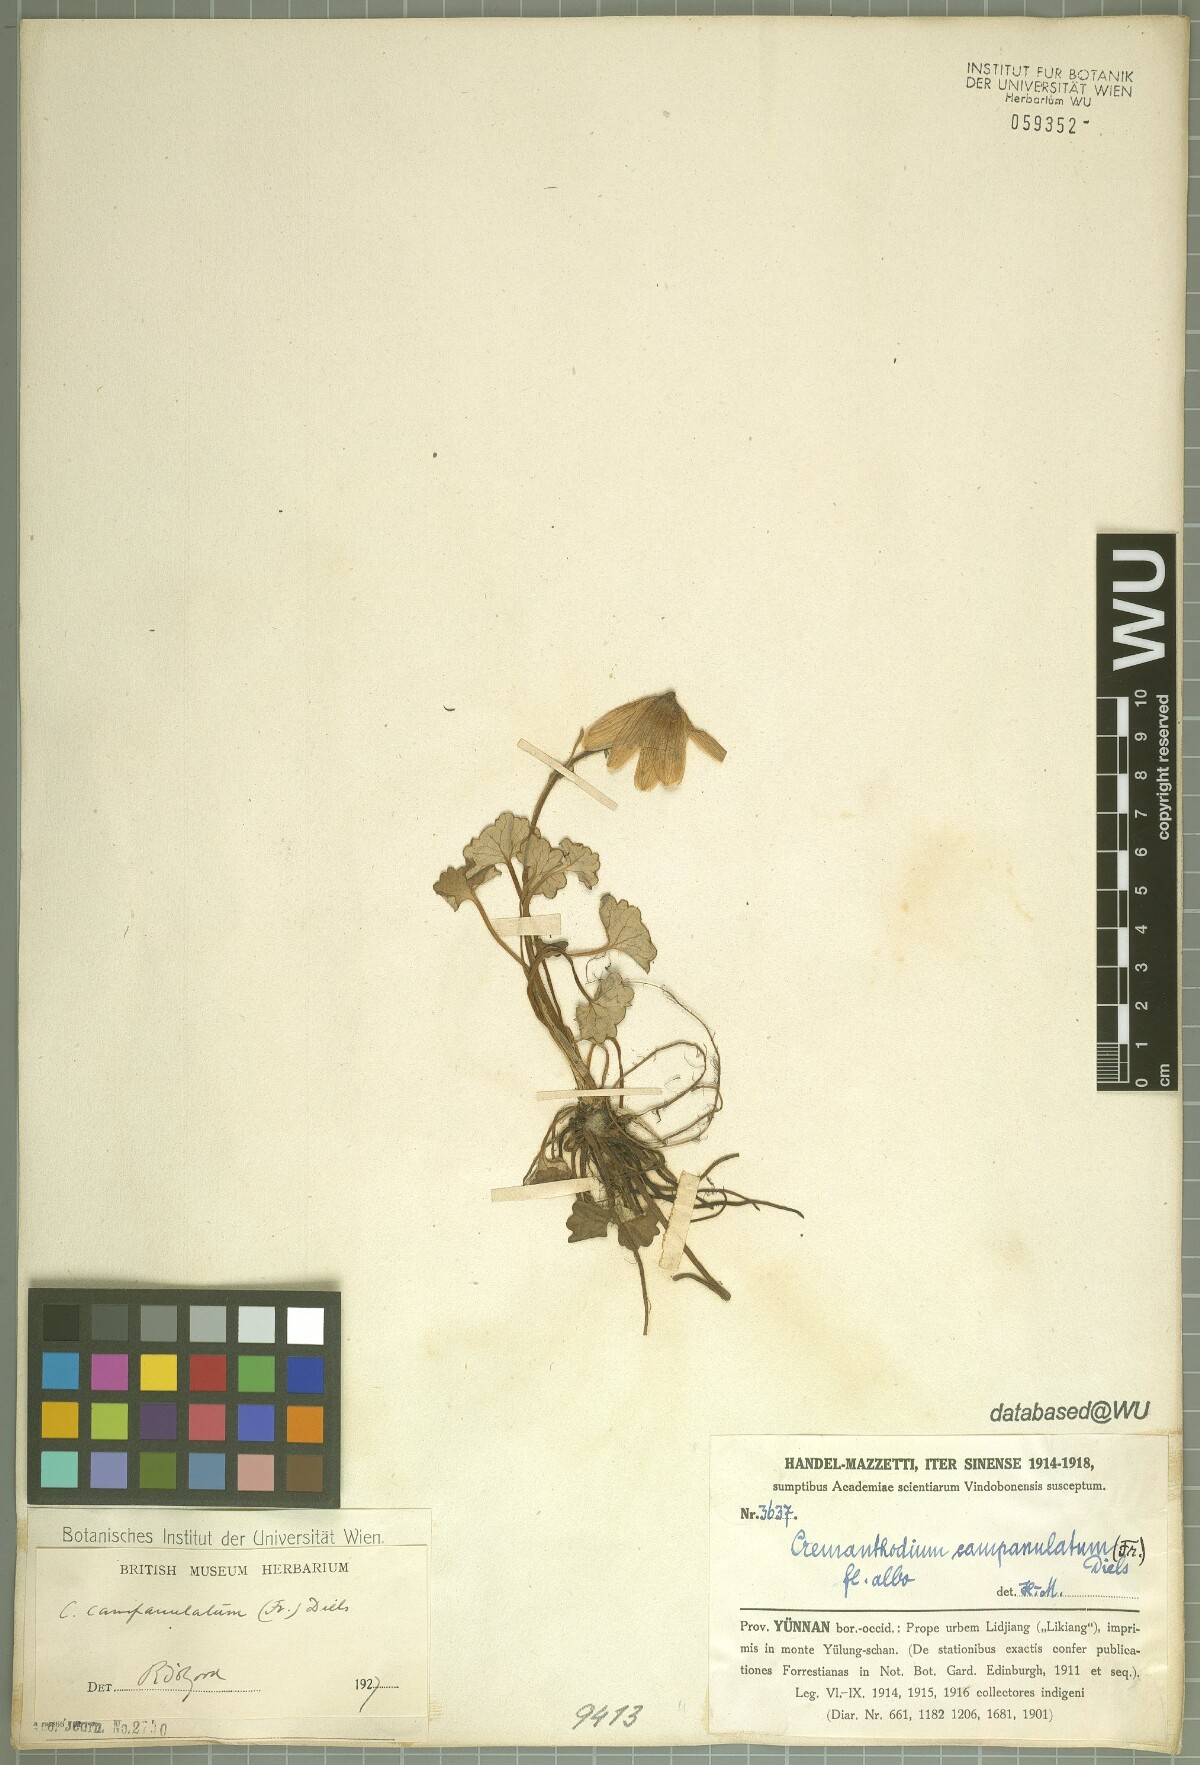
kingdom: Plantae
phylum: Tracheophyta
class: Magnoliopsida
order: Asterales
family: Asteraceae
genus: Cremanthodium
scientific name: Cremanthodium campanulatum
